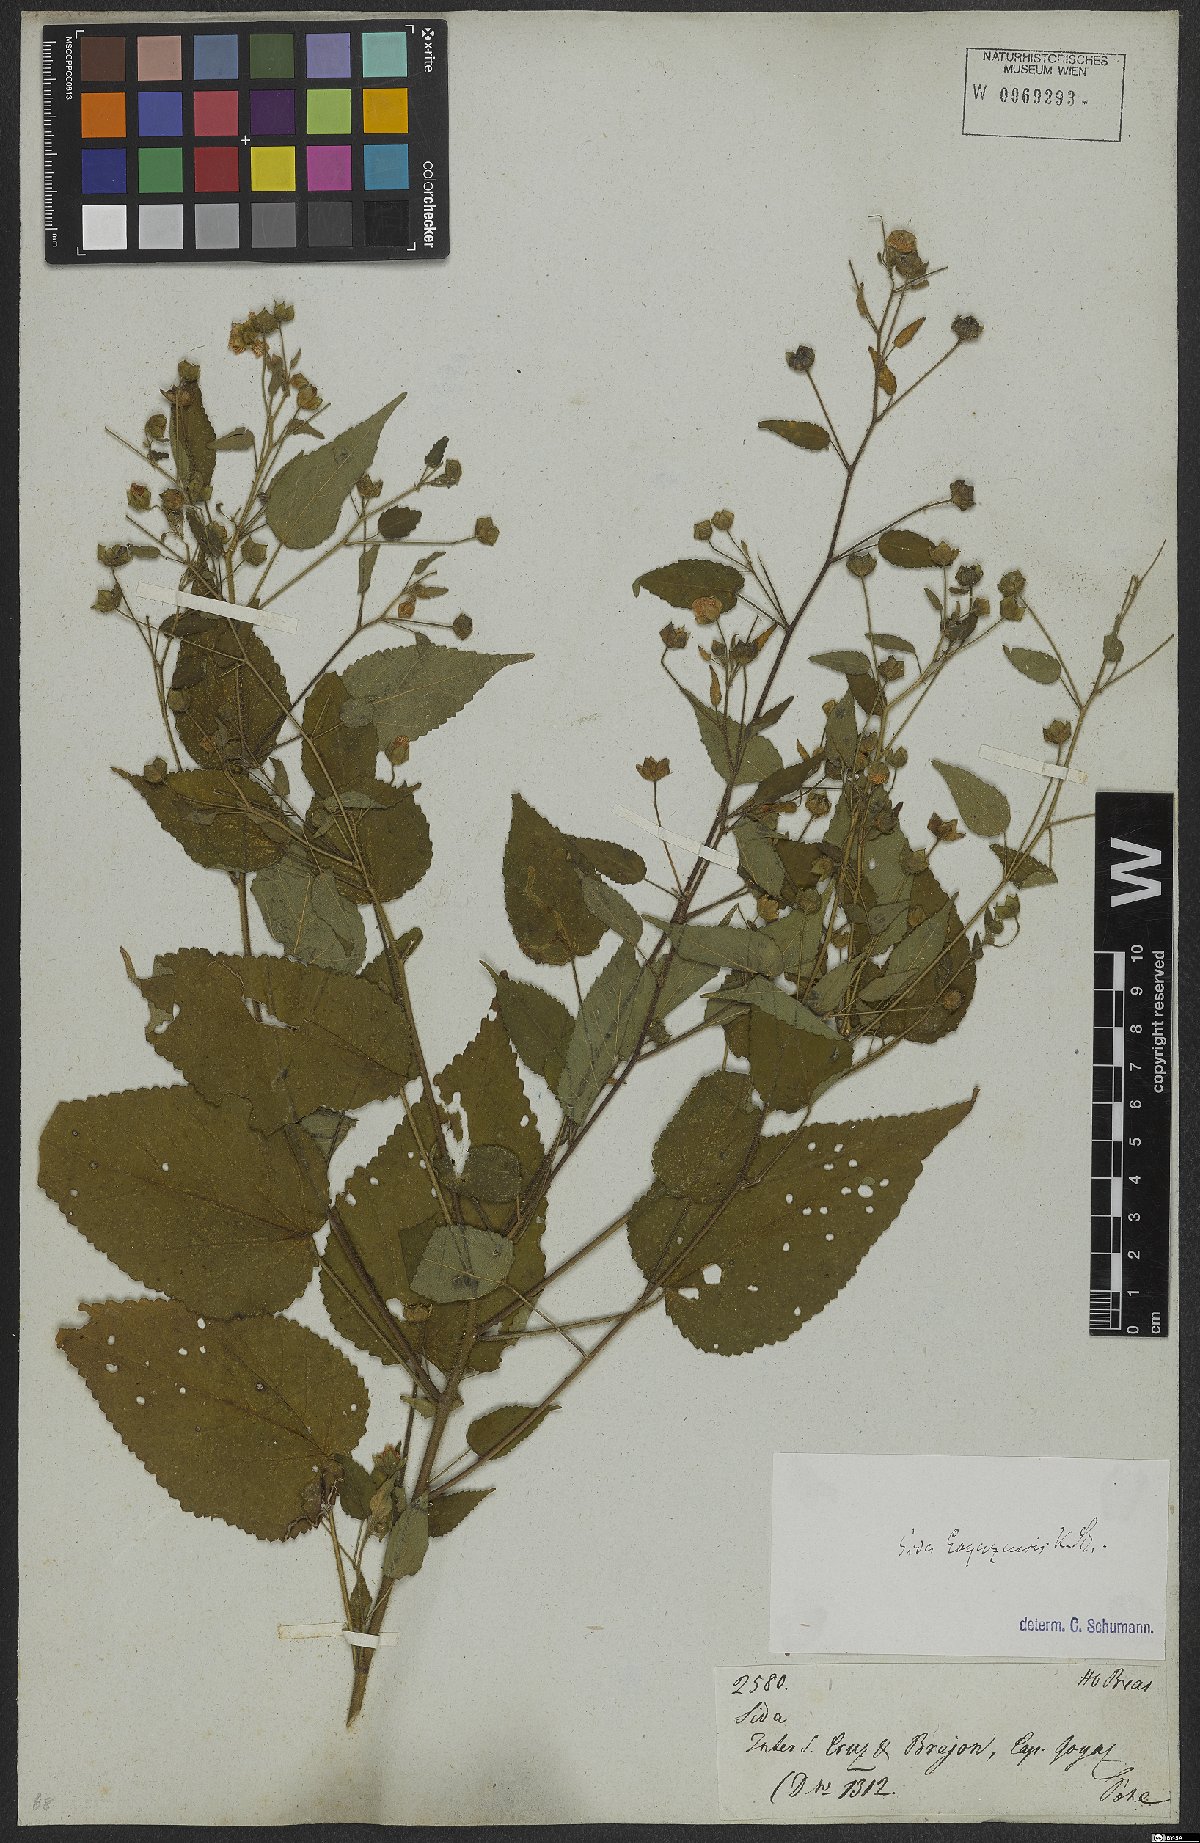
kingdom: Plantae
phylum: Tracheophyta
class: Magnoliopsida
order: Malvales
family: Malvaceae
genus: Sida
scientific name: Sida goyazensis
